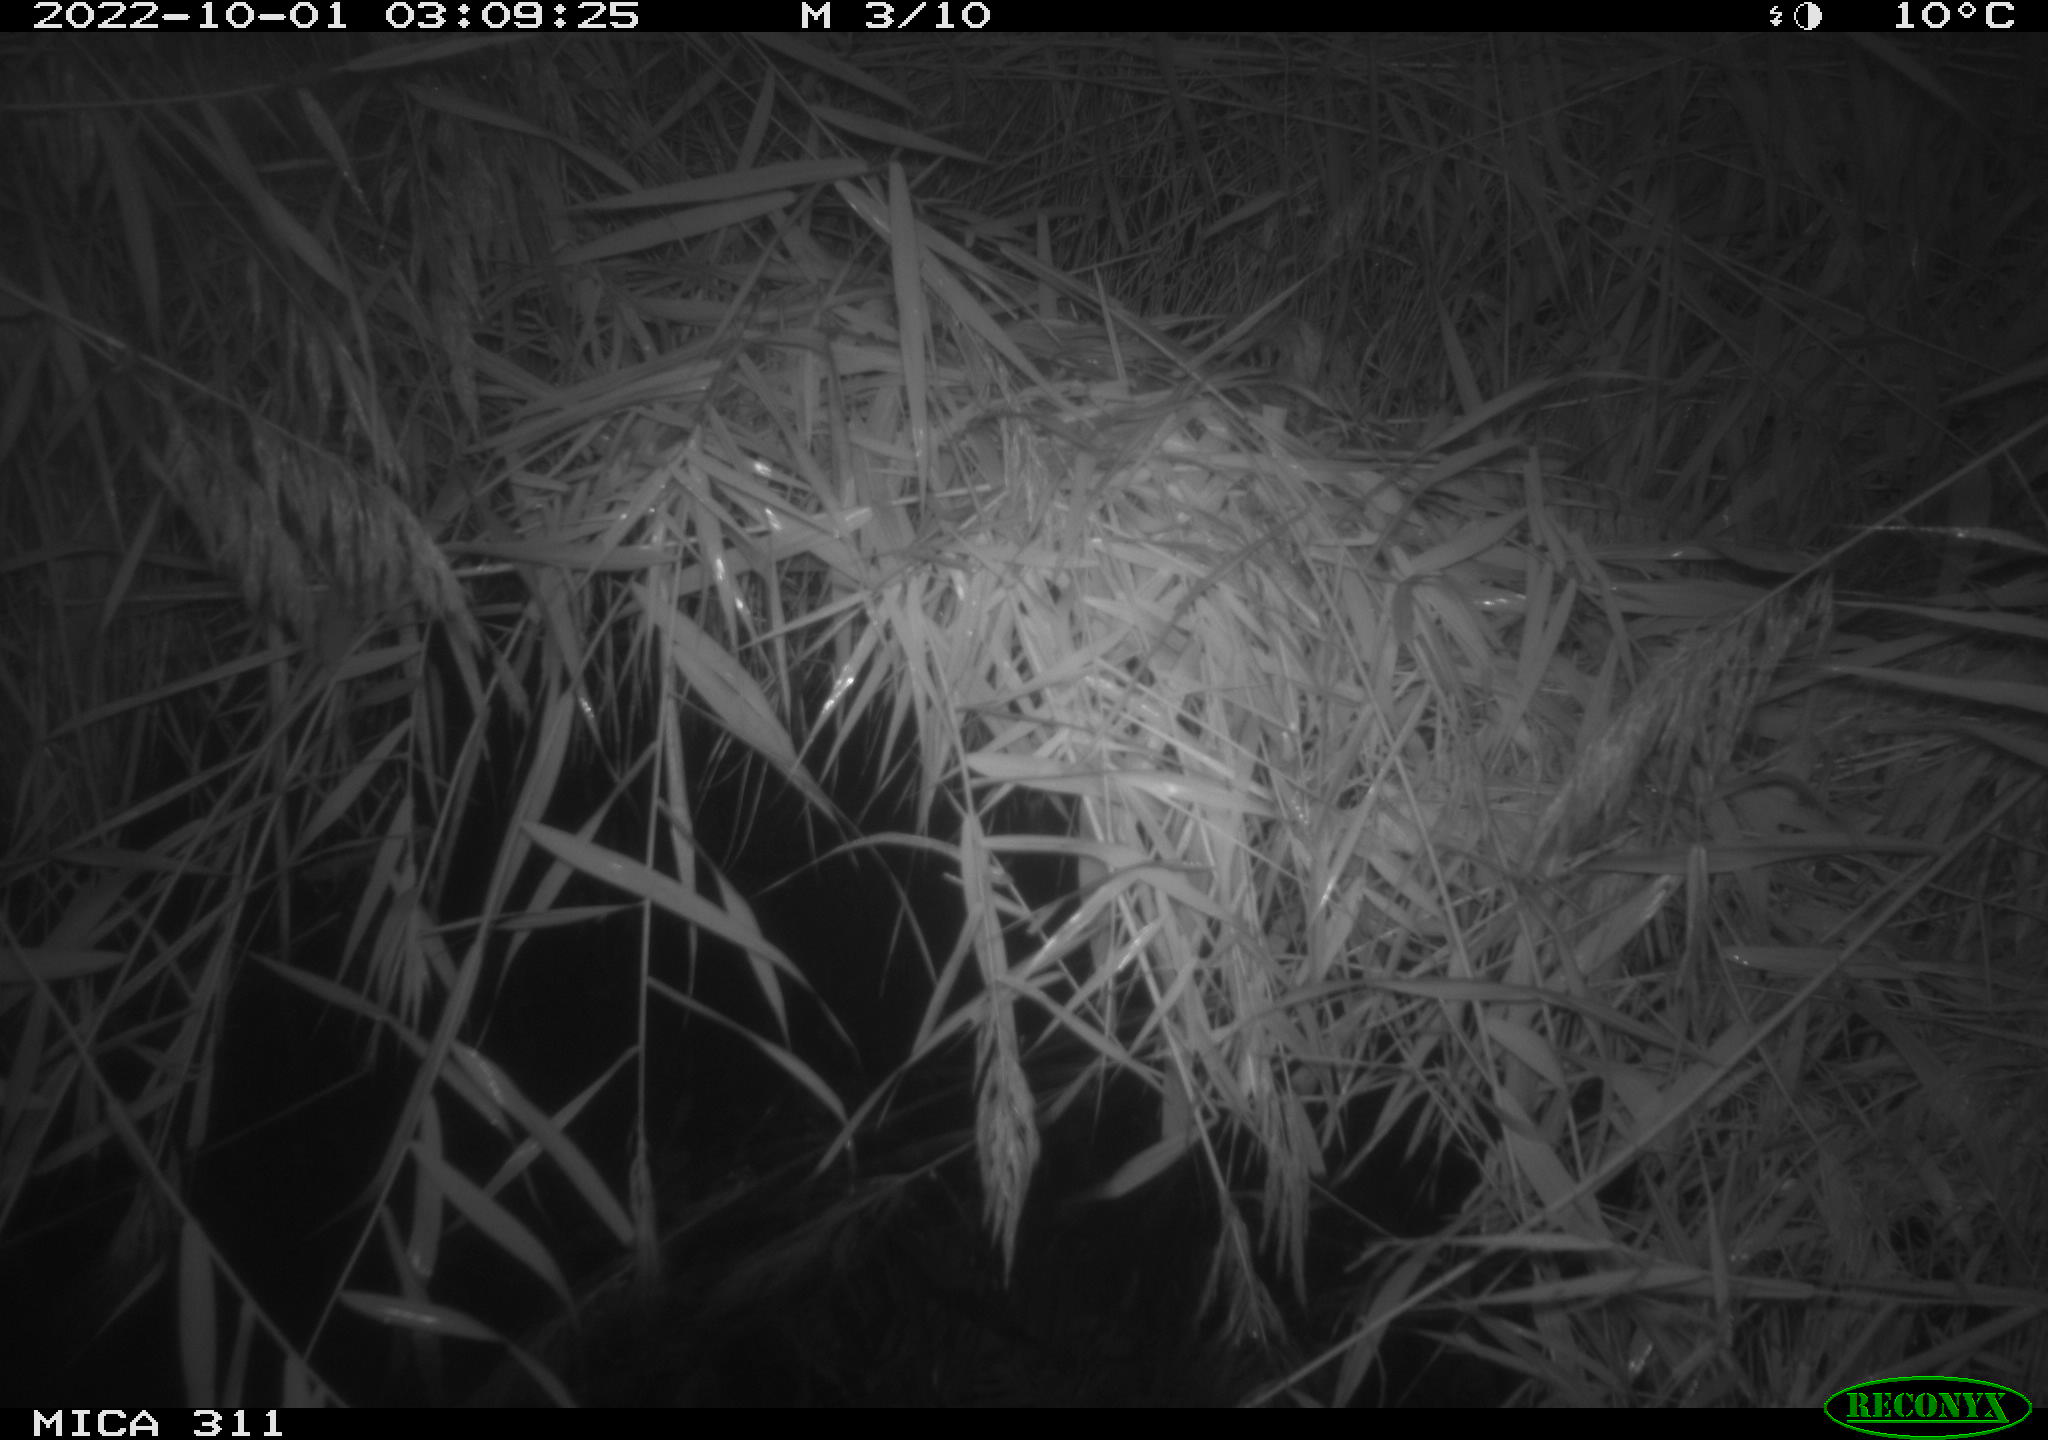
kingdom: Animalia
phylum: Chordata
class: Mammalia
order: Rodentia
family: Muridae
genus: Rattus
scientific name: Rattus norvegicus
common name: Brown rat
